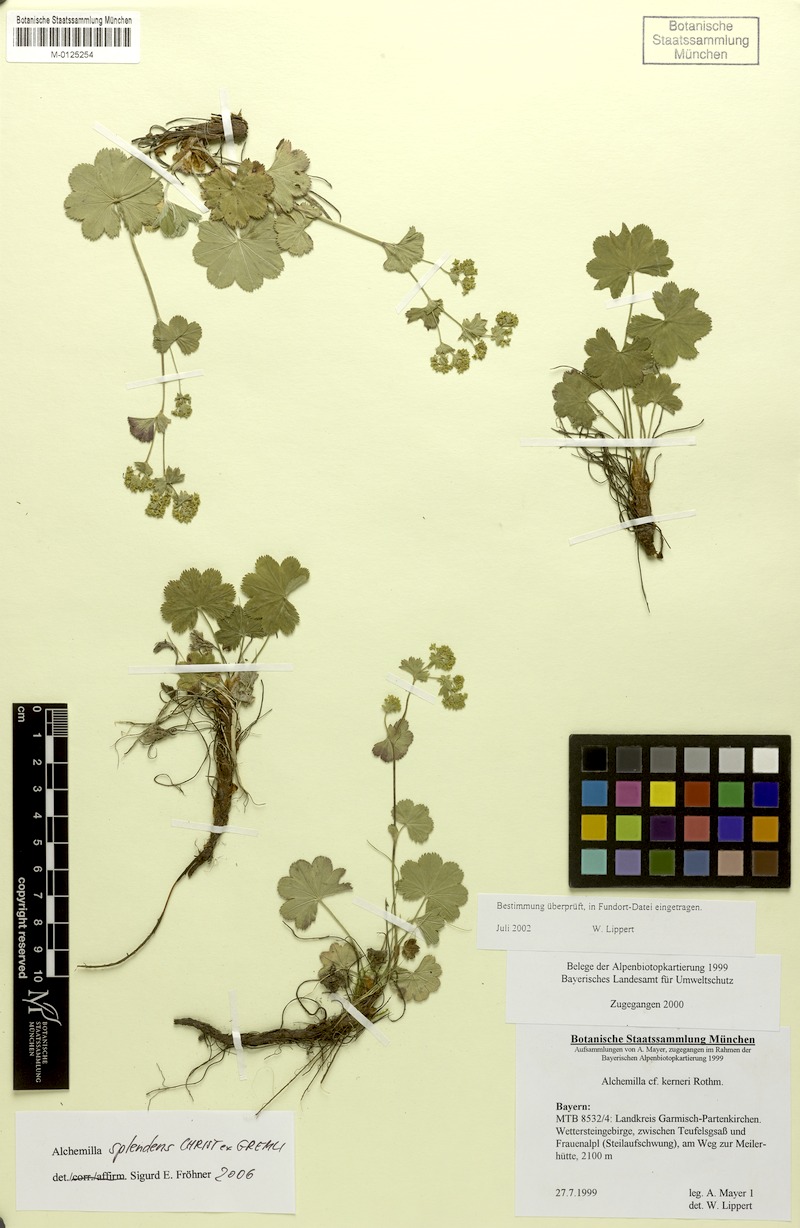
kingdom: Plantae
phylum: Tracheophyta
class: Magnoliopsida
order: Rosales
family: Rosaceae
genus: Alchemilla
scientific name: Alchemilla splendens
